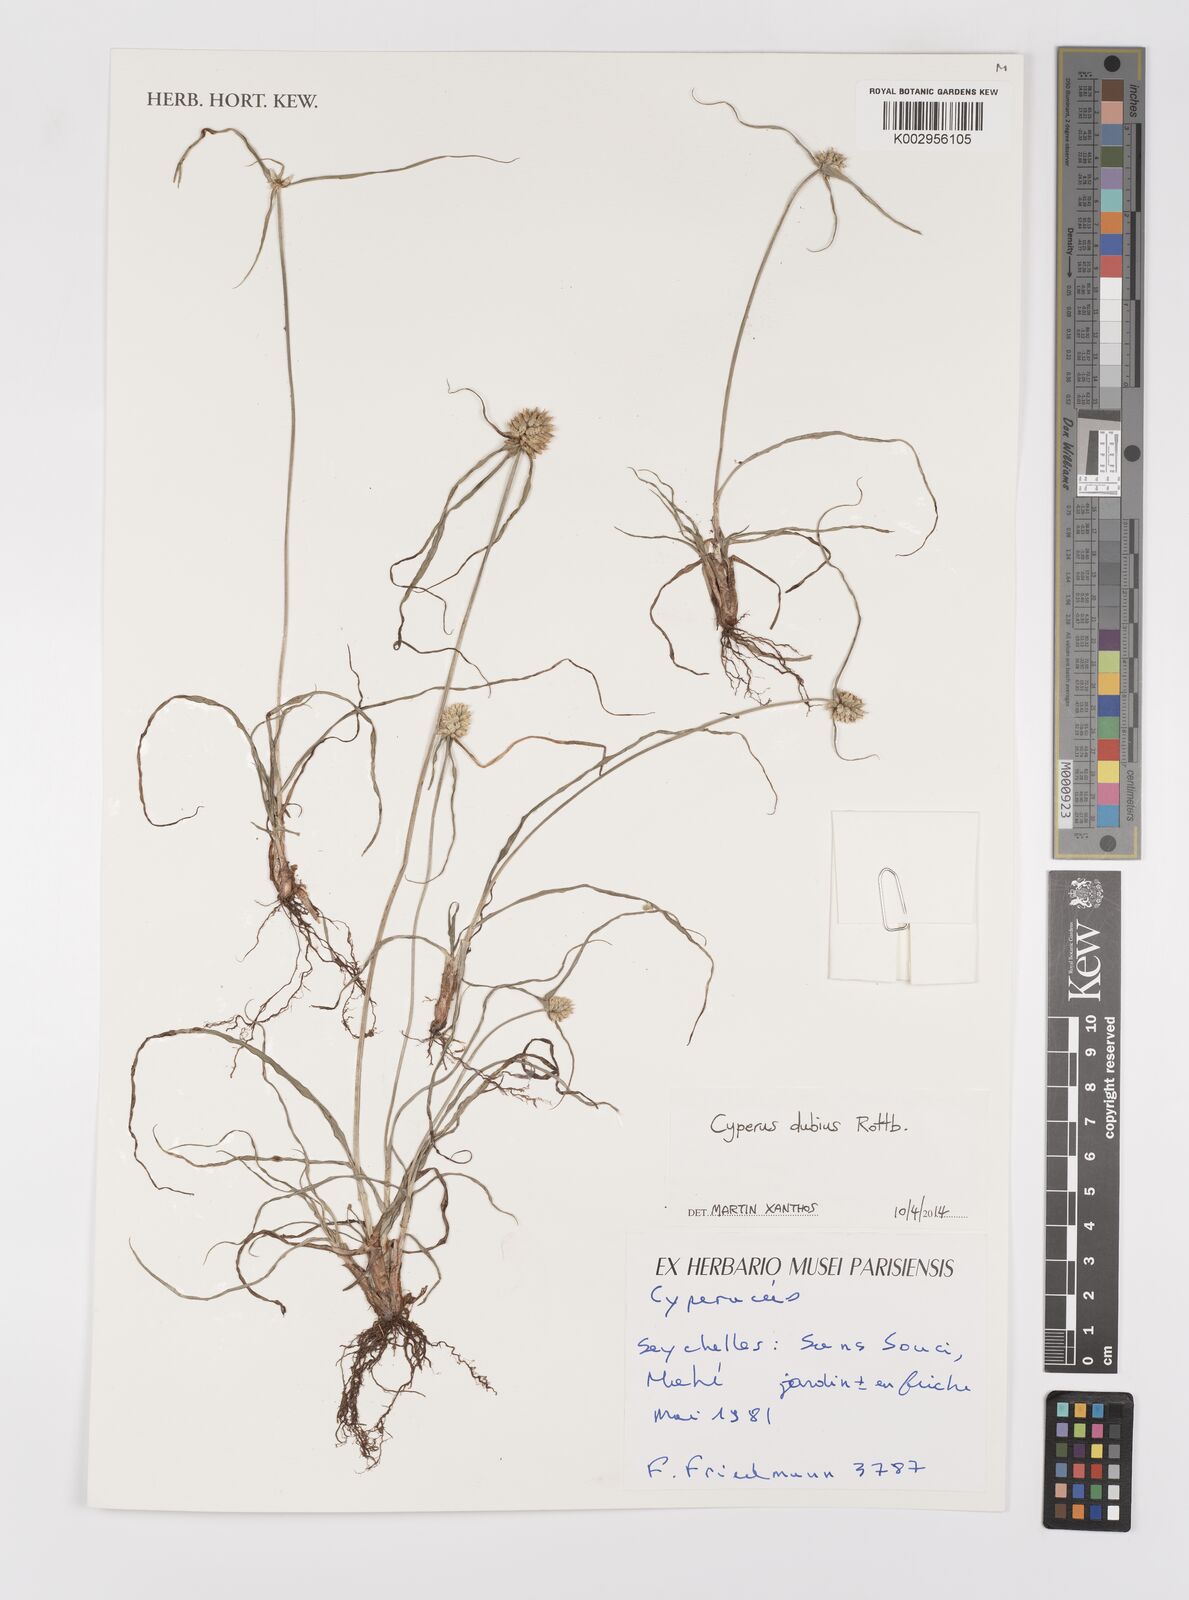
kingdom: Plantae
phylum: Tracheophyta
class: Liliopsida
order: Poales
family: Cyperaceae
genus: Cyperus
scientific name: Cyperus dubius
